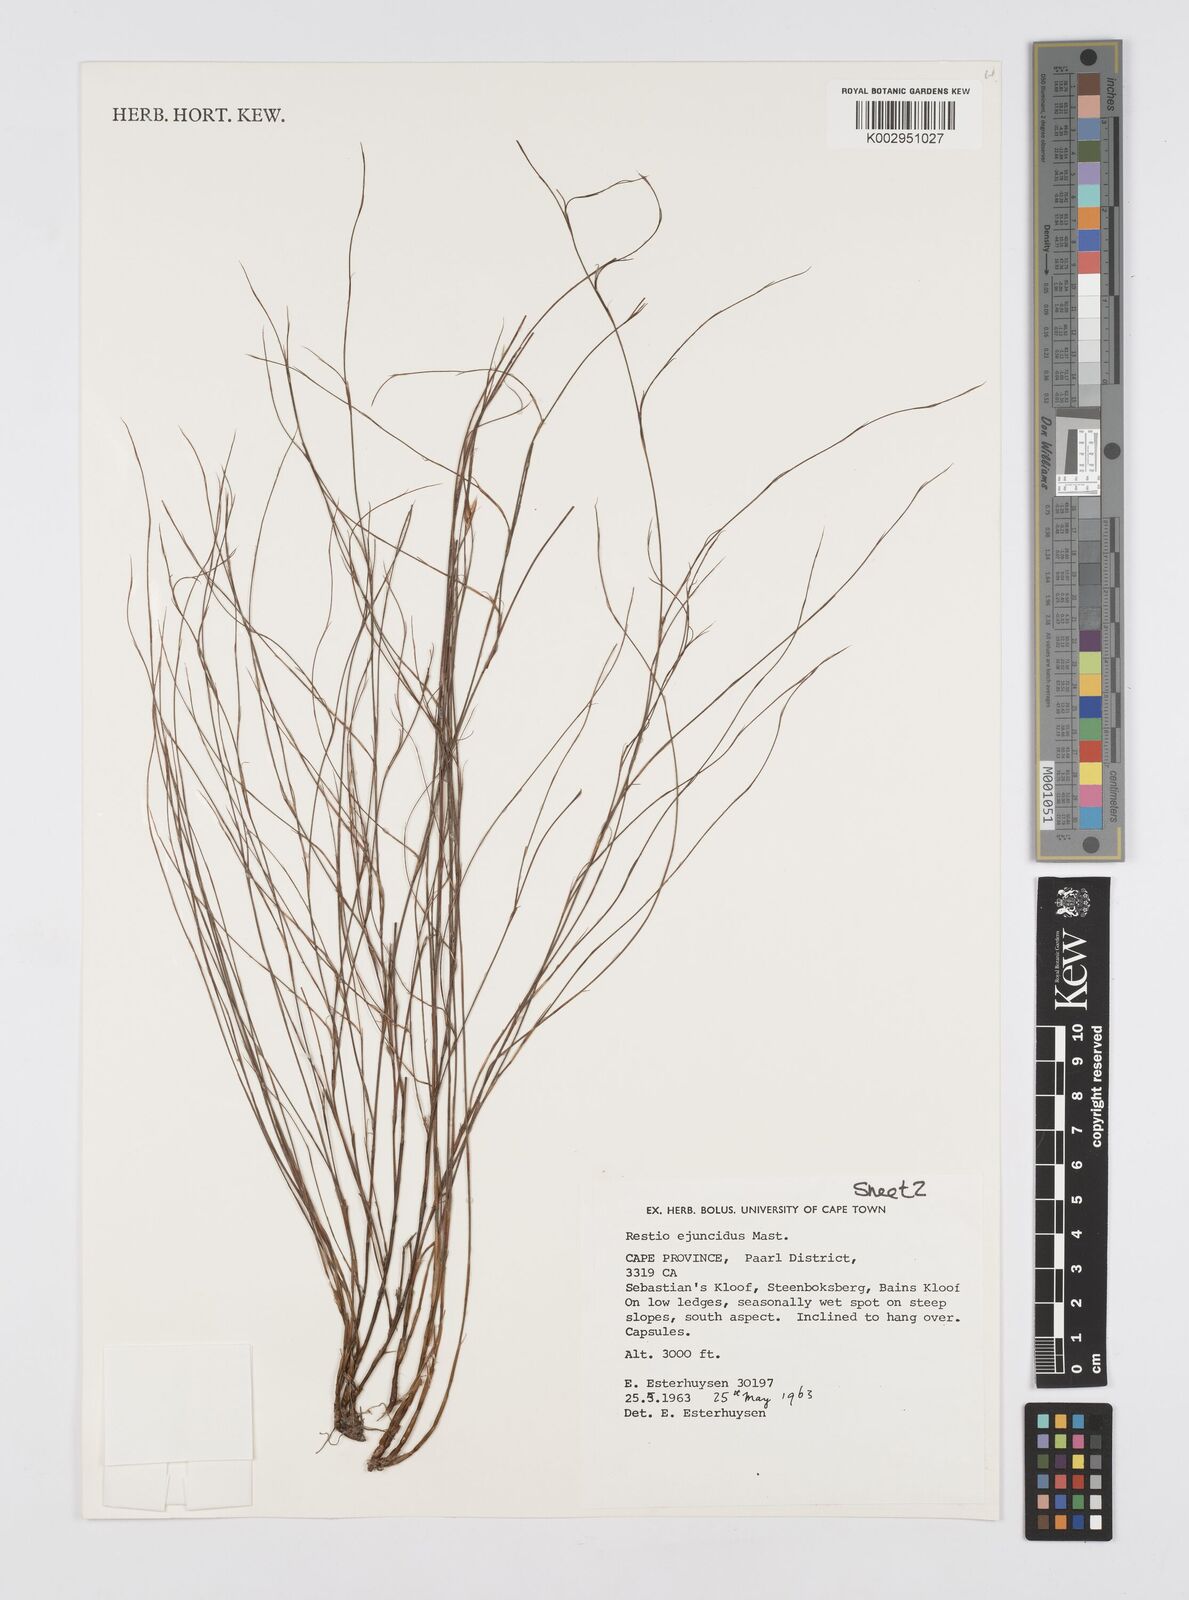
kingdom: Plantae
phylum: Tracheophyta
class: Liliopsida
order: Poales
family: Restionaceae
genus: Restio
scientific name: Restio ejuncidus
